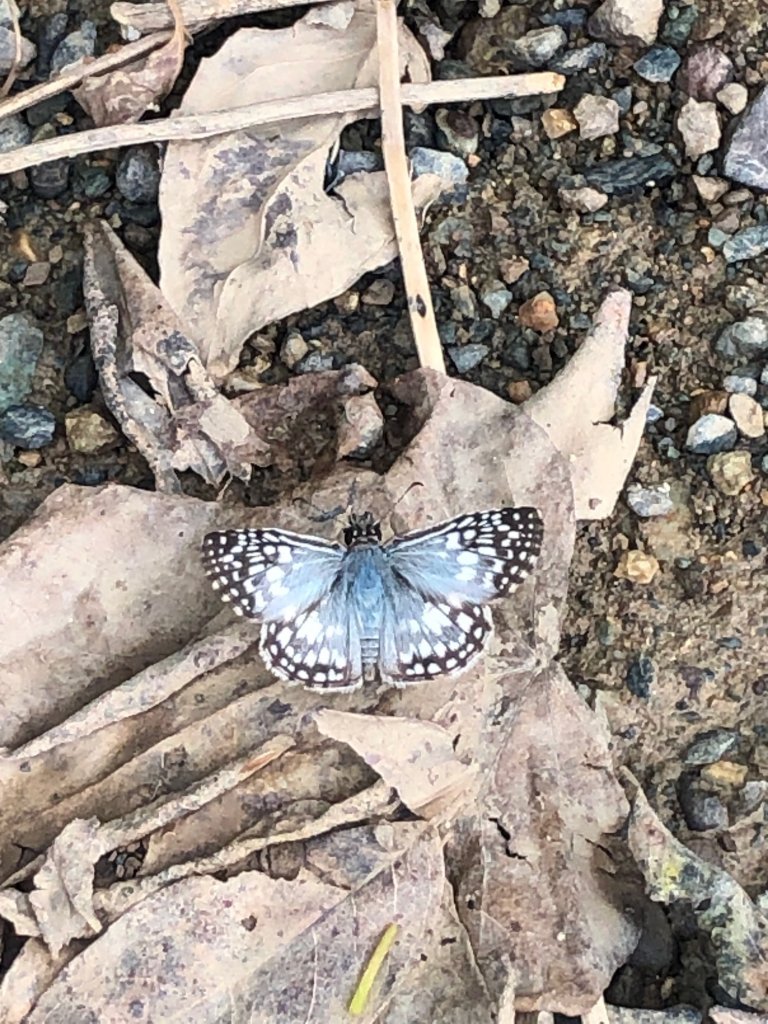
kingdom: Animalia
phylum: Arthropoda
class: Insecta
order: Lepidoptera
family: Hesperiidae
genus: Pyrgus
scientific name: Pyrgus oileus
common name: Tropical Checkered-Skipper
